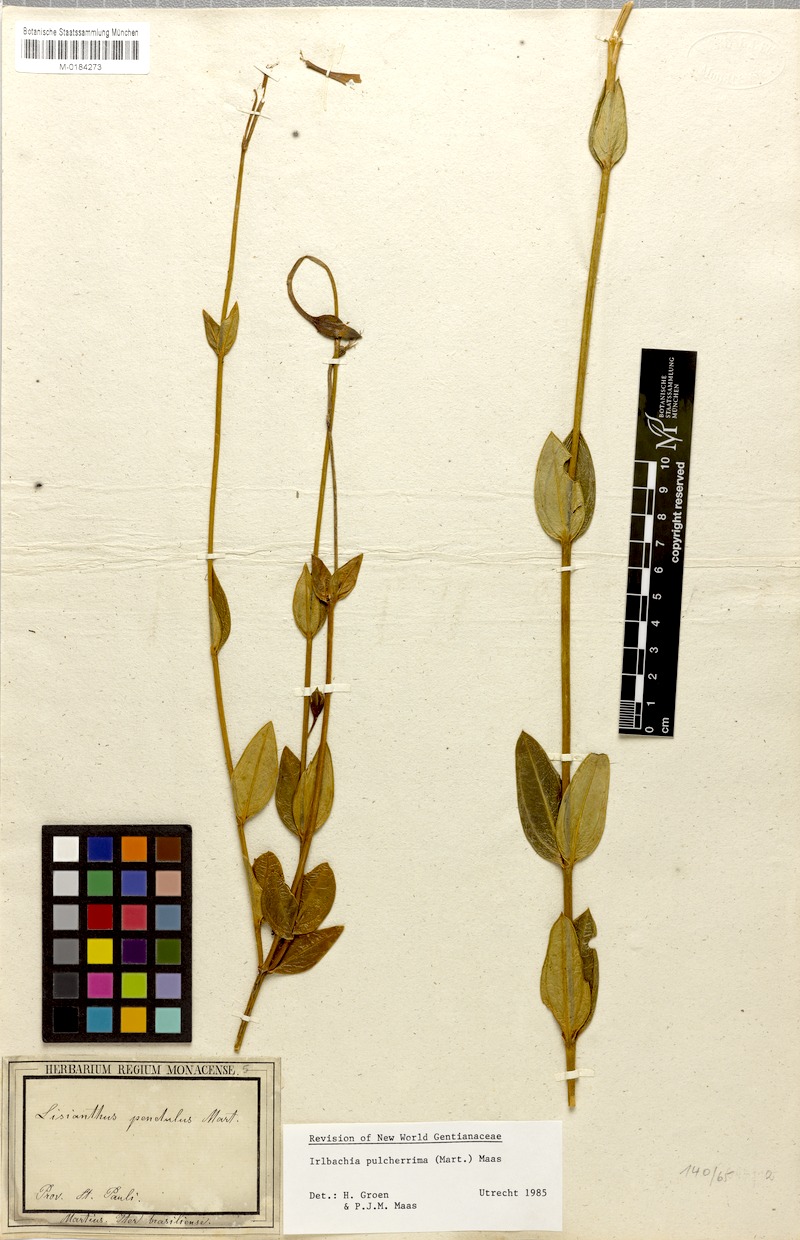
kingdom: Plantae
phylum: Tracheophyta
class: Magnoliopsida
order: Gentianales
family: Gentianaceae
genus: Calolisianthus
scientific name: Calolisianthus pendulus
